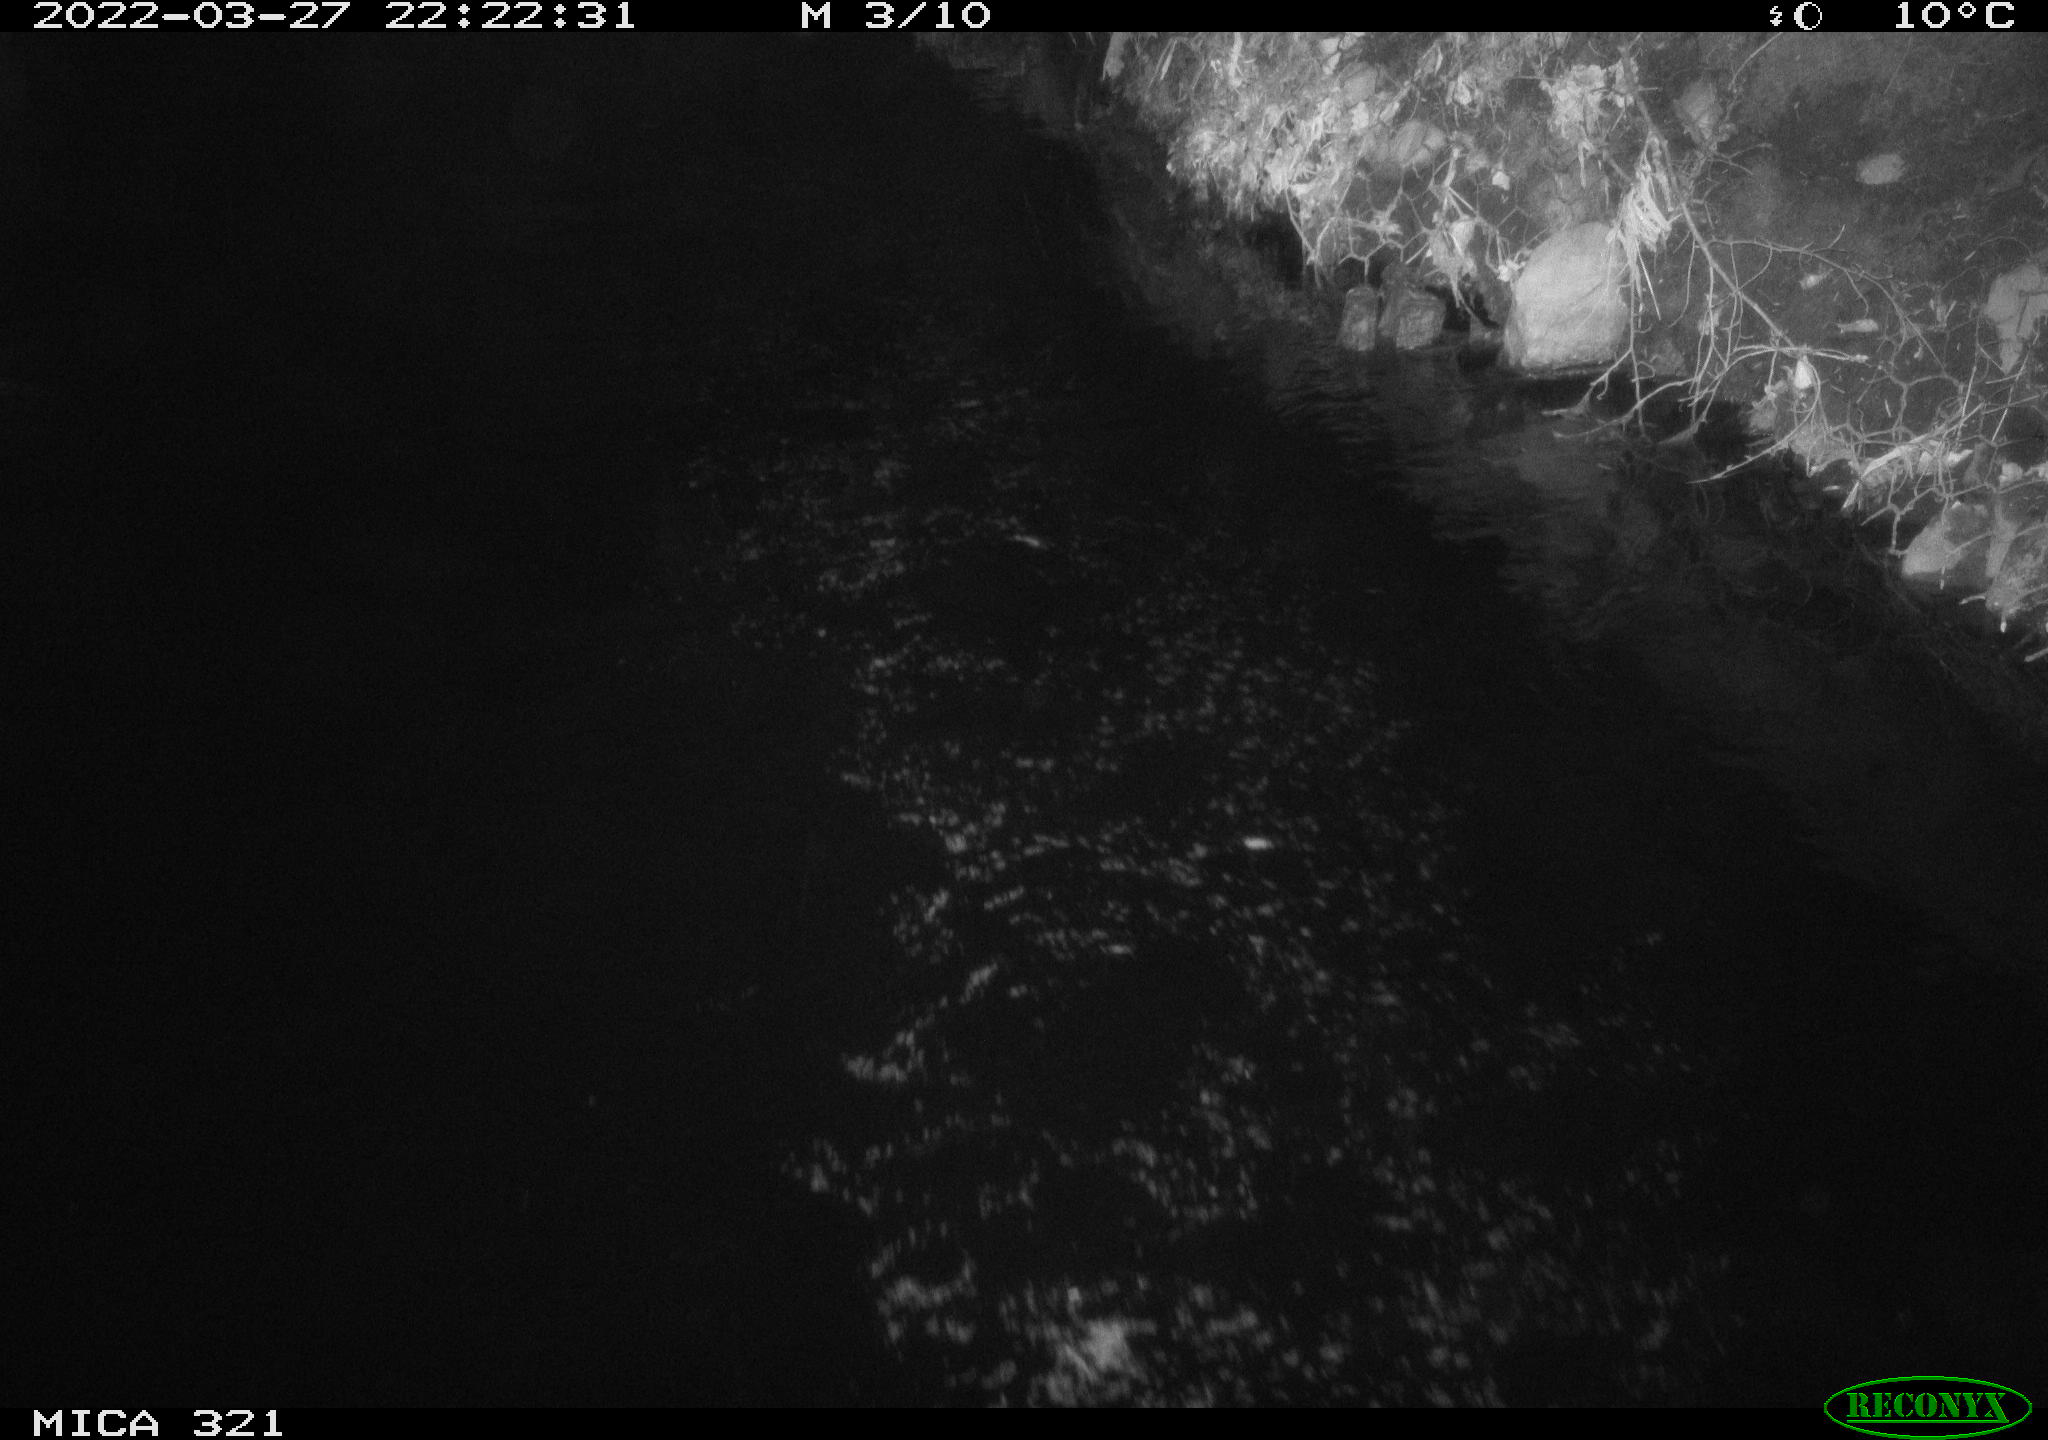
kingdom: Animalia
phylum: Chordata
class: Aves
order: Anseriformes
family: Anatidae
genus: Anas
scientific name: Anas platyrhynchos
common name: Mallard
